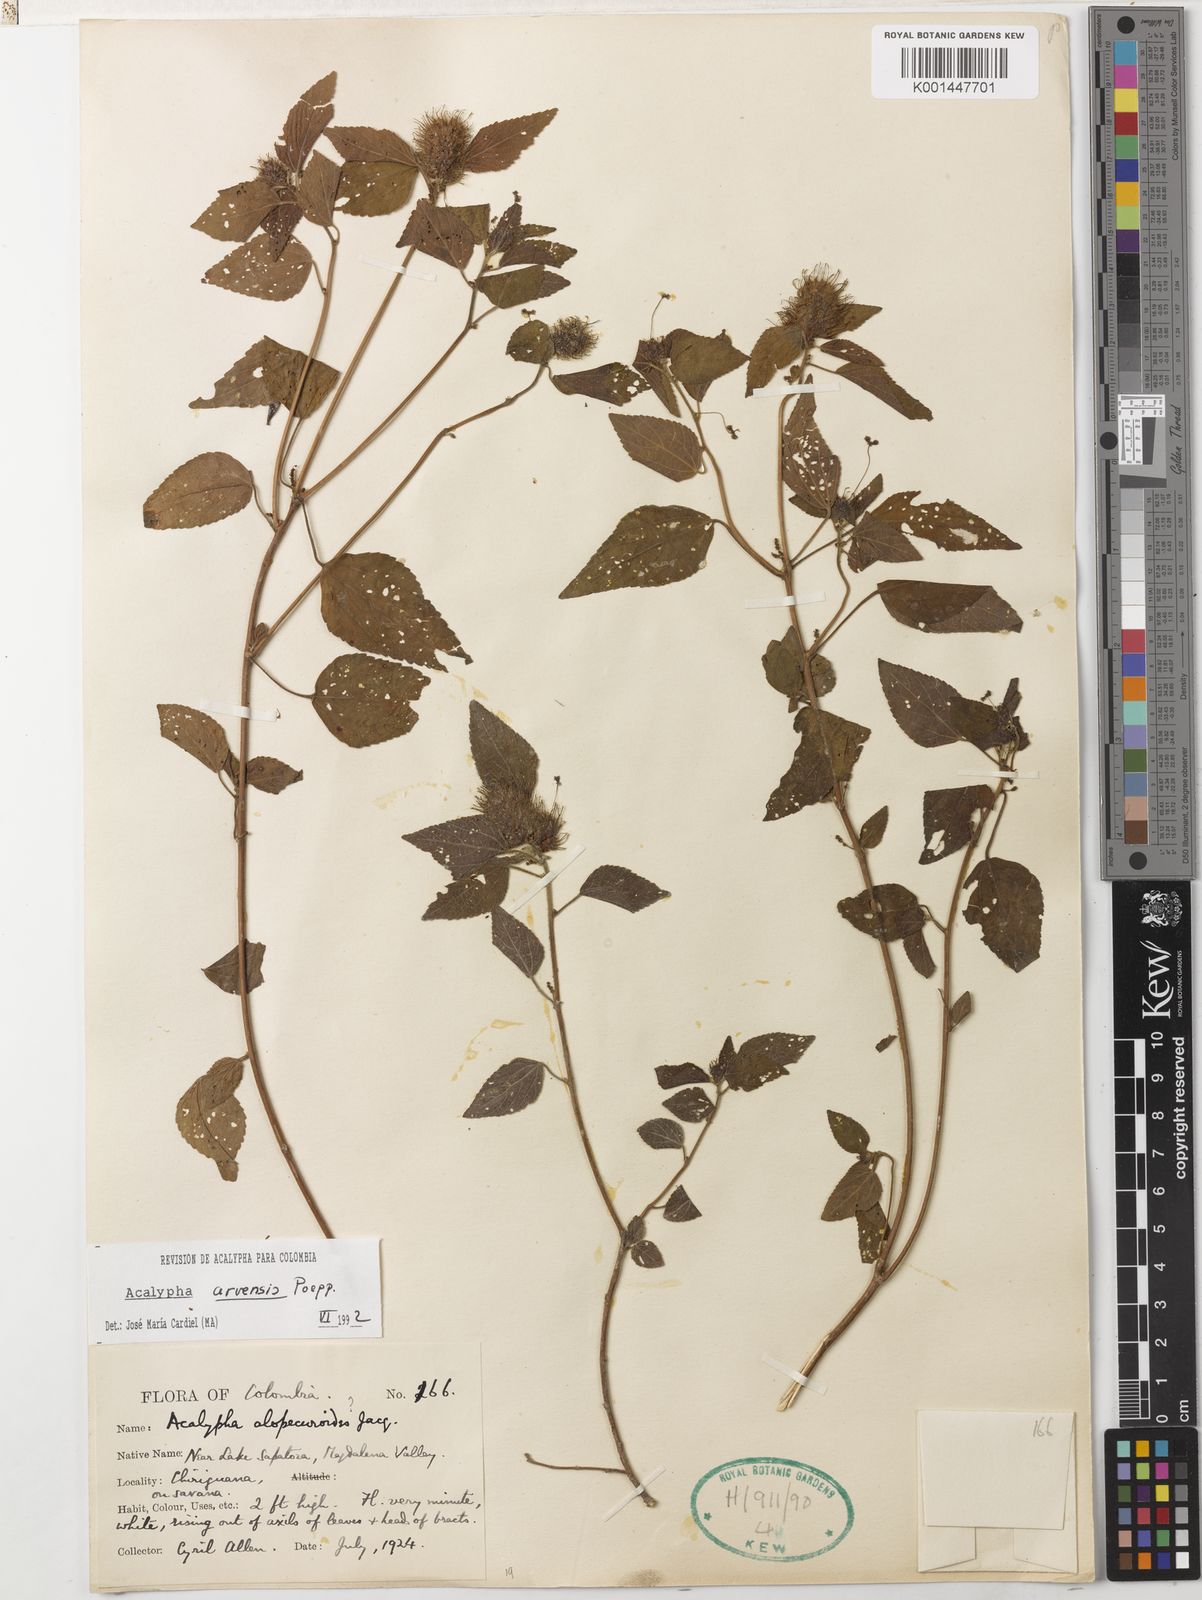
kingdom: Plantae
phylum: Tracheophyta
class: Magnoliopsida
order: Malpighiales
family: Euphorbiaceae
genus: Acalypha
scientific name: Acalypha alopecuroidea
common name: Foxtail copperleaf
